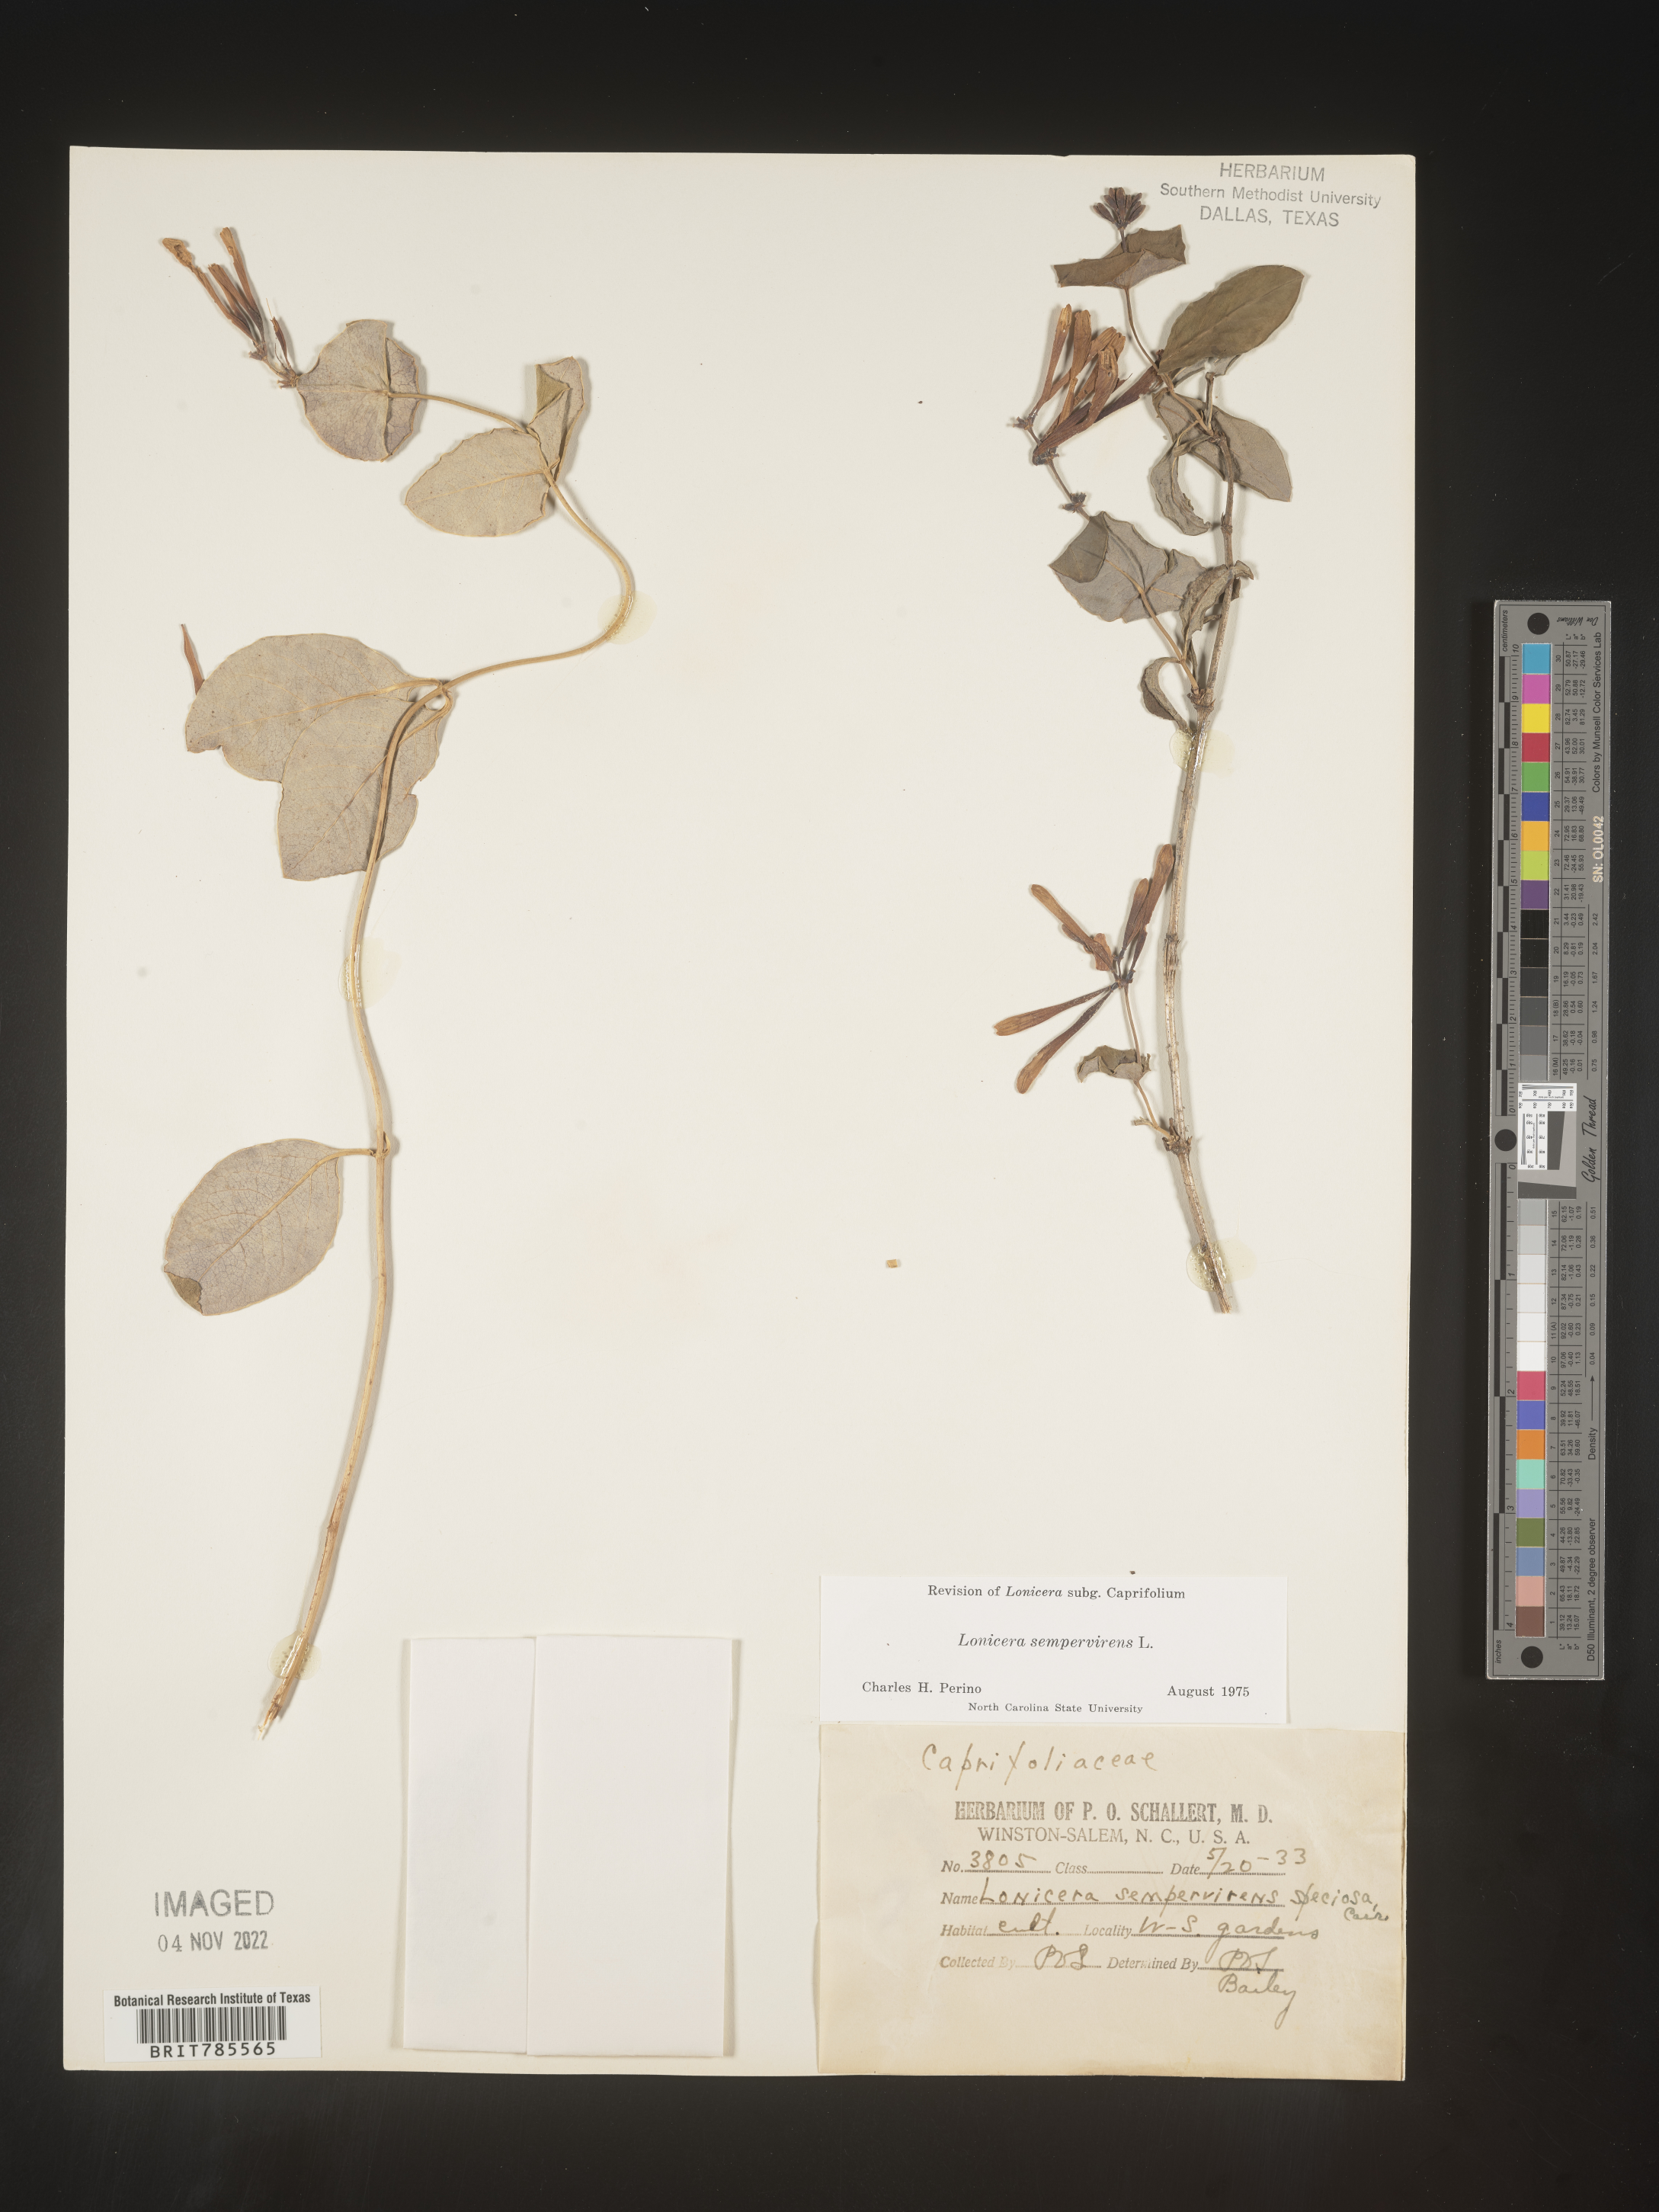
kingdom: Plantae
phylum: Tracheophyta
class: Magnoliopsida
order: Dipsacales
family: Caprifoliaceae
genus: Lonicera
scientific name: Lonicera sempervirens
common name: Coral honeysuckle
